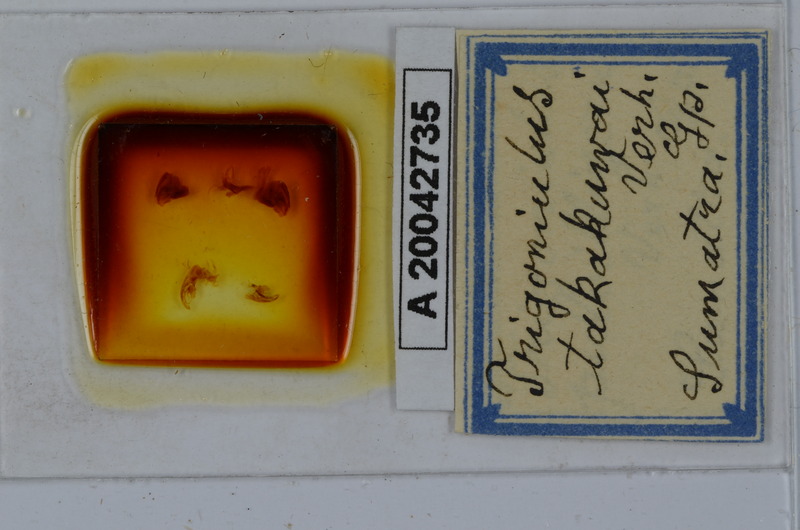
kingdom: Animalia
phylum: Arthropoda
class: Diplopoda
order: Spirobolida
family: Pachybolidae
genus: Trigoniulus
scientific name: Trigoniulus corallinus
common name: Millipede
